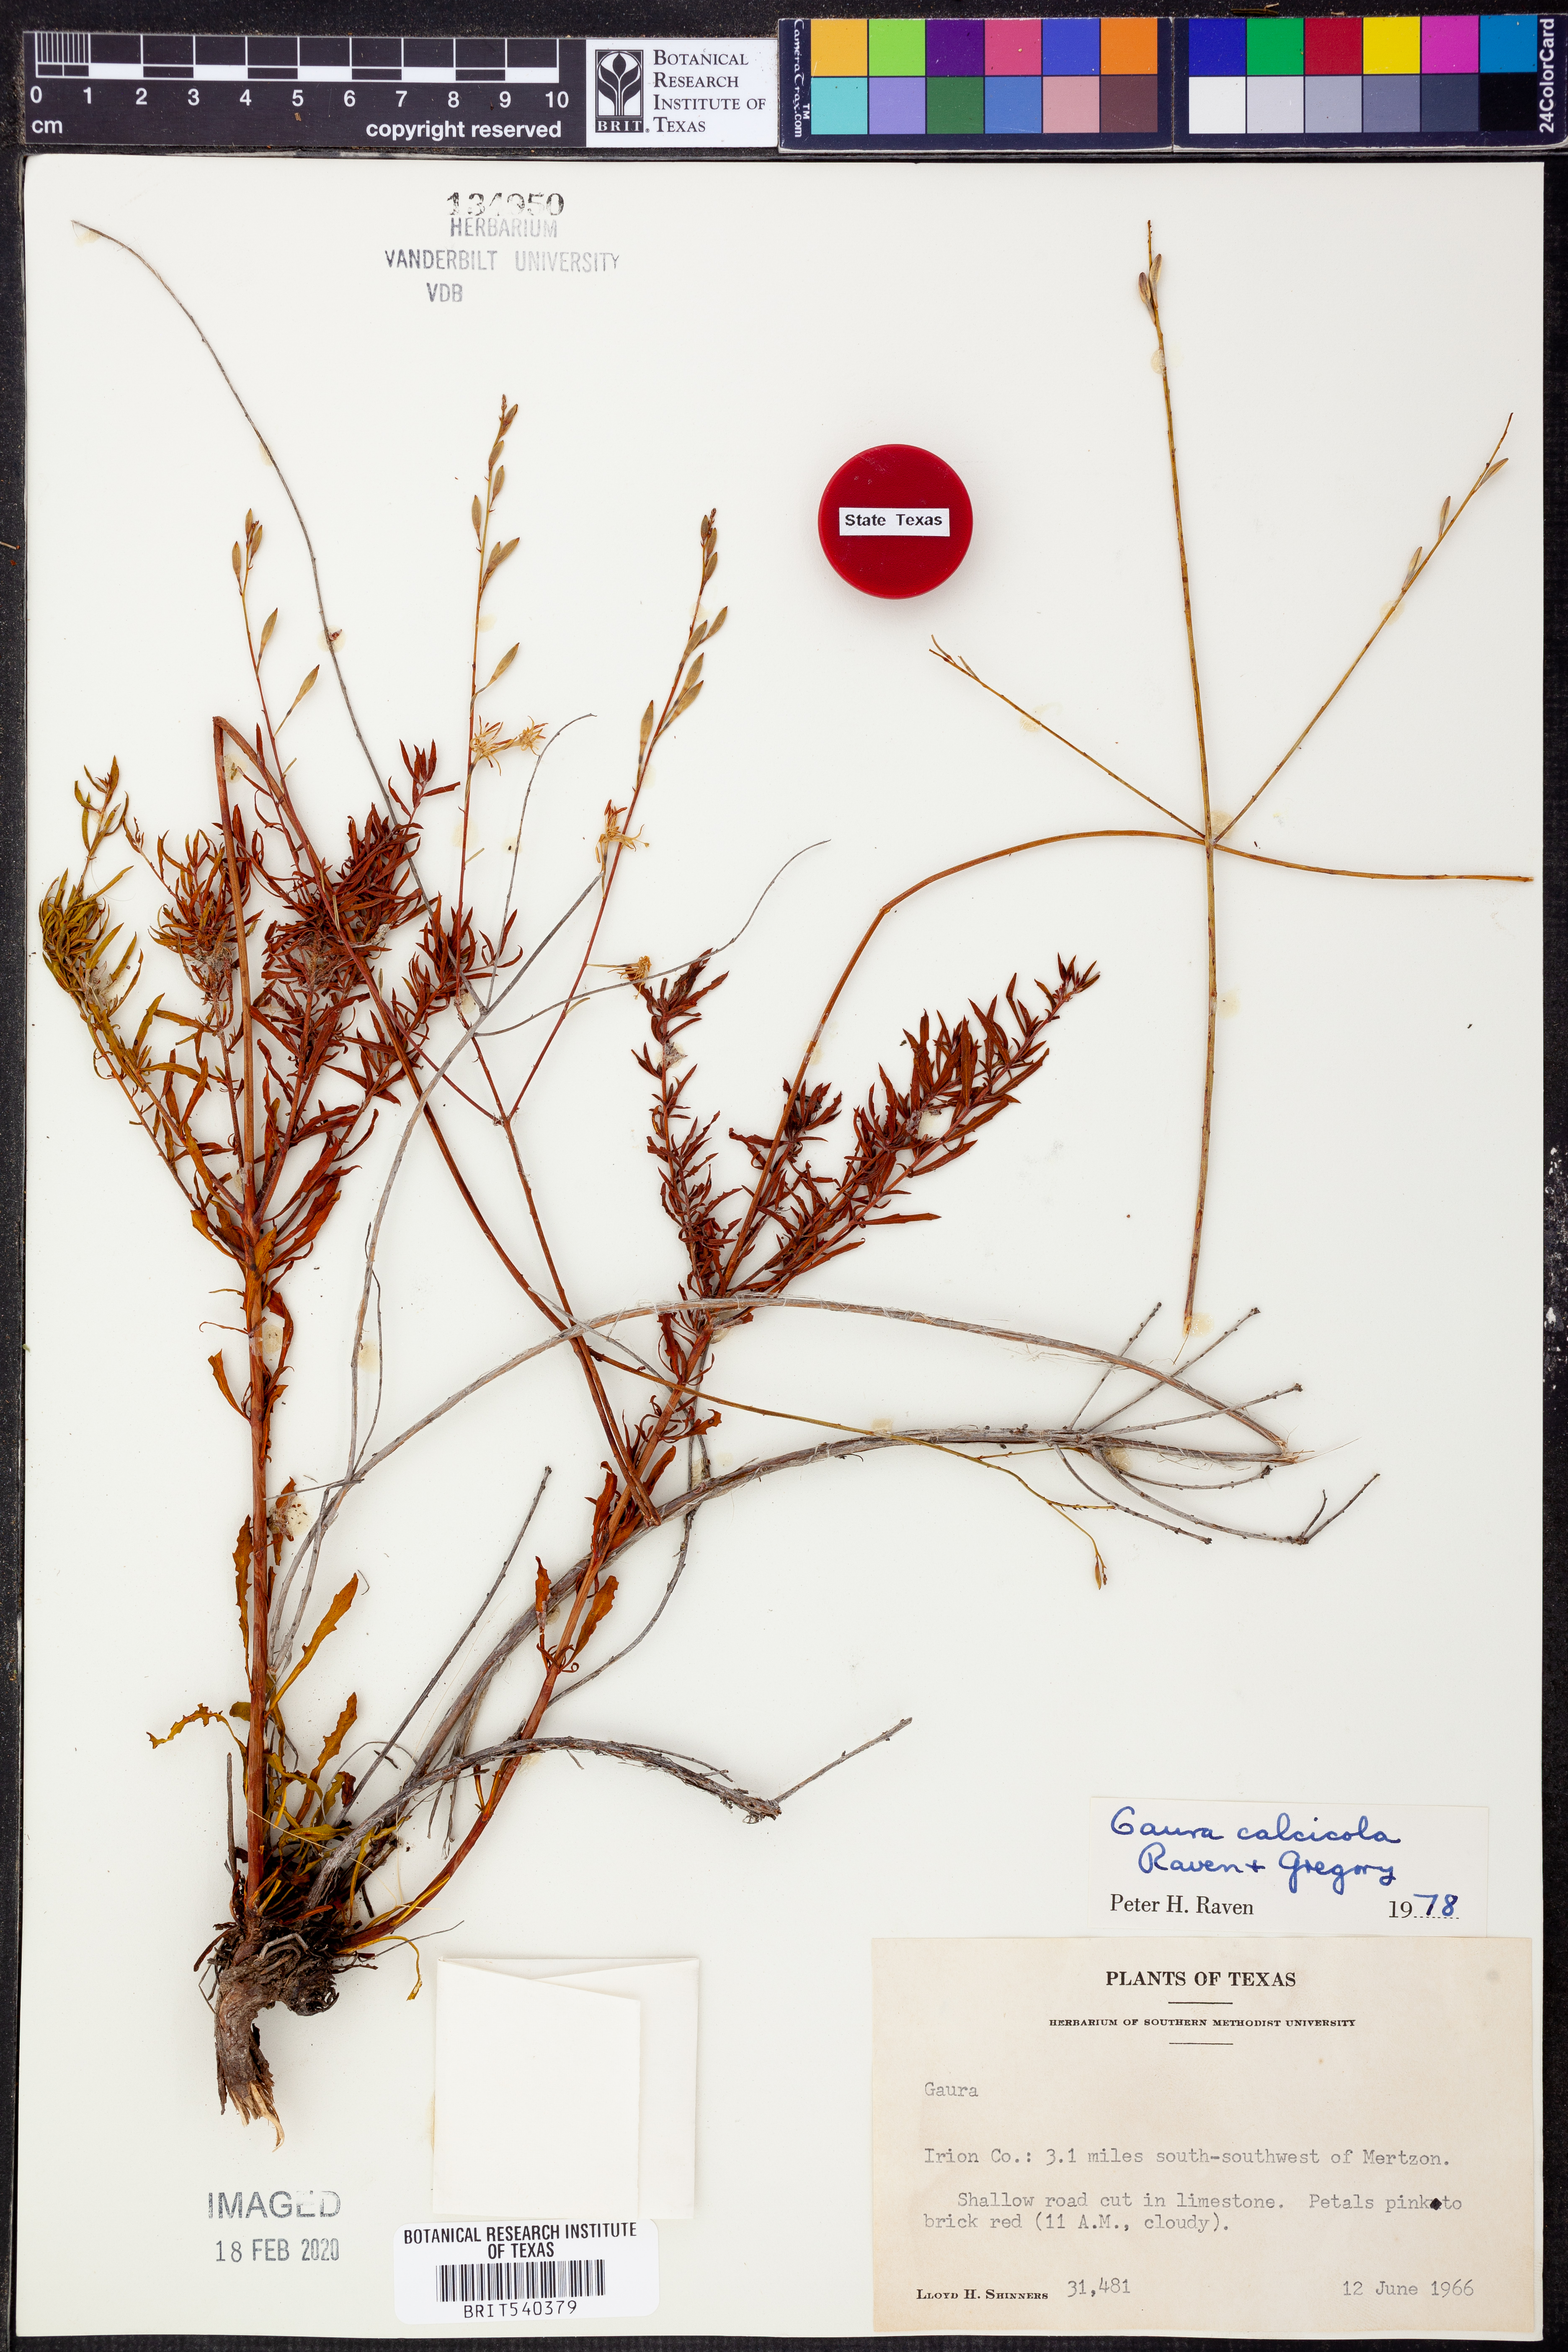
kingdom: Plantae
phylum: Tracheophyta
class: Magnoliopsida
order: Myrtales
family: Onagraceae
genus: Oenothera
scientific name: Oenothera calcicola
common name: Texas beeblossom
